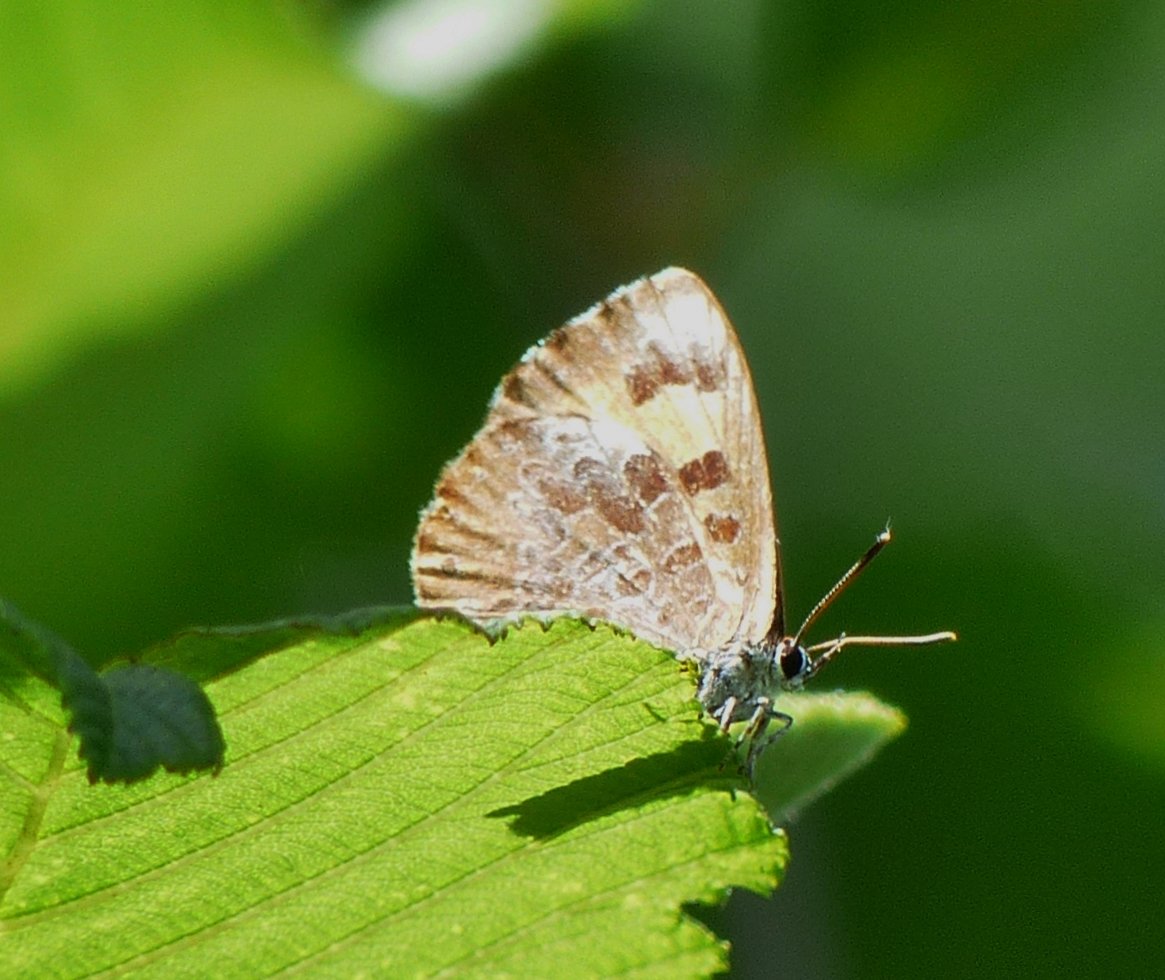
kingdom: Animalia
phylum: Arthropoda
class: Insecta
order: Lepidoptera
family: Lycaenidae
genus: Feniseca
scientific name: Feniseca tarquinius
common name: Harvester
